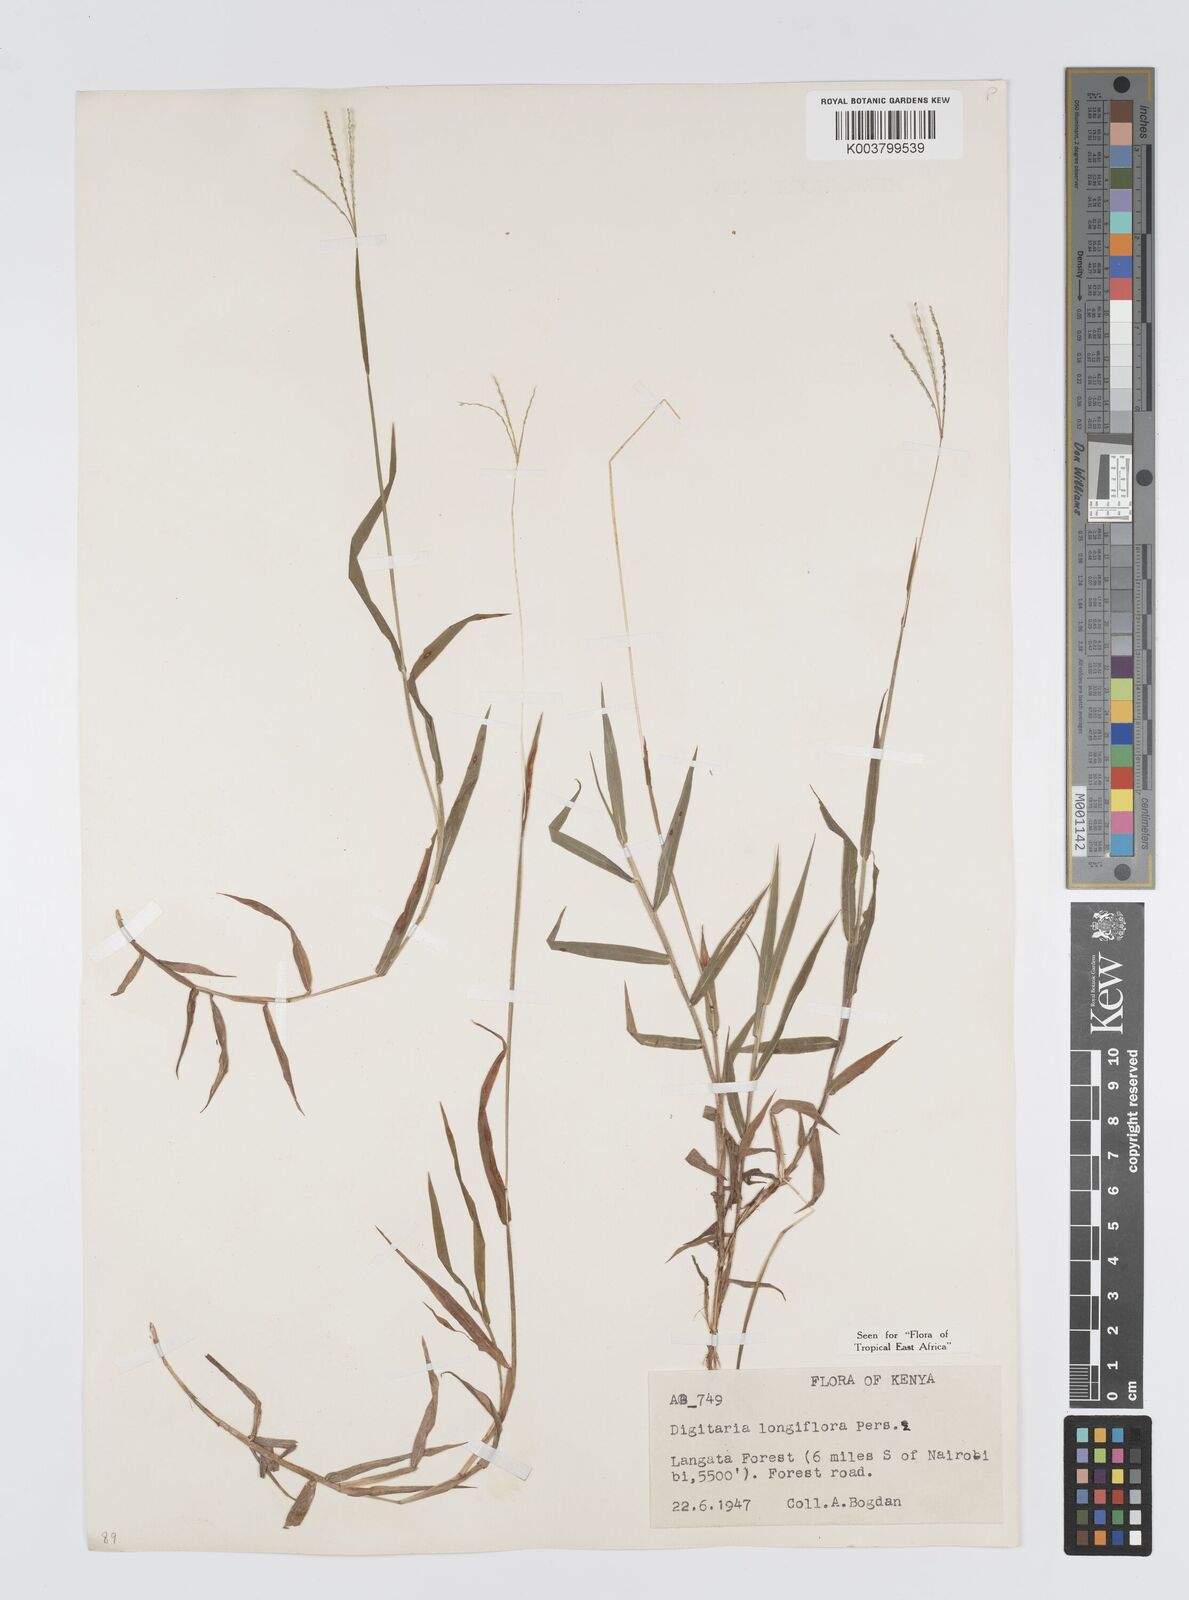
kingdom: Plantae
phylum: Tracheophyta
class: Liliopsida
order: Poales
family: Poaceae
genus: Digitaria
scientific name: Digitaria longiflora
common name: Wire crabgrass
